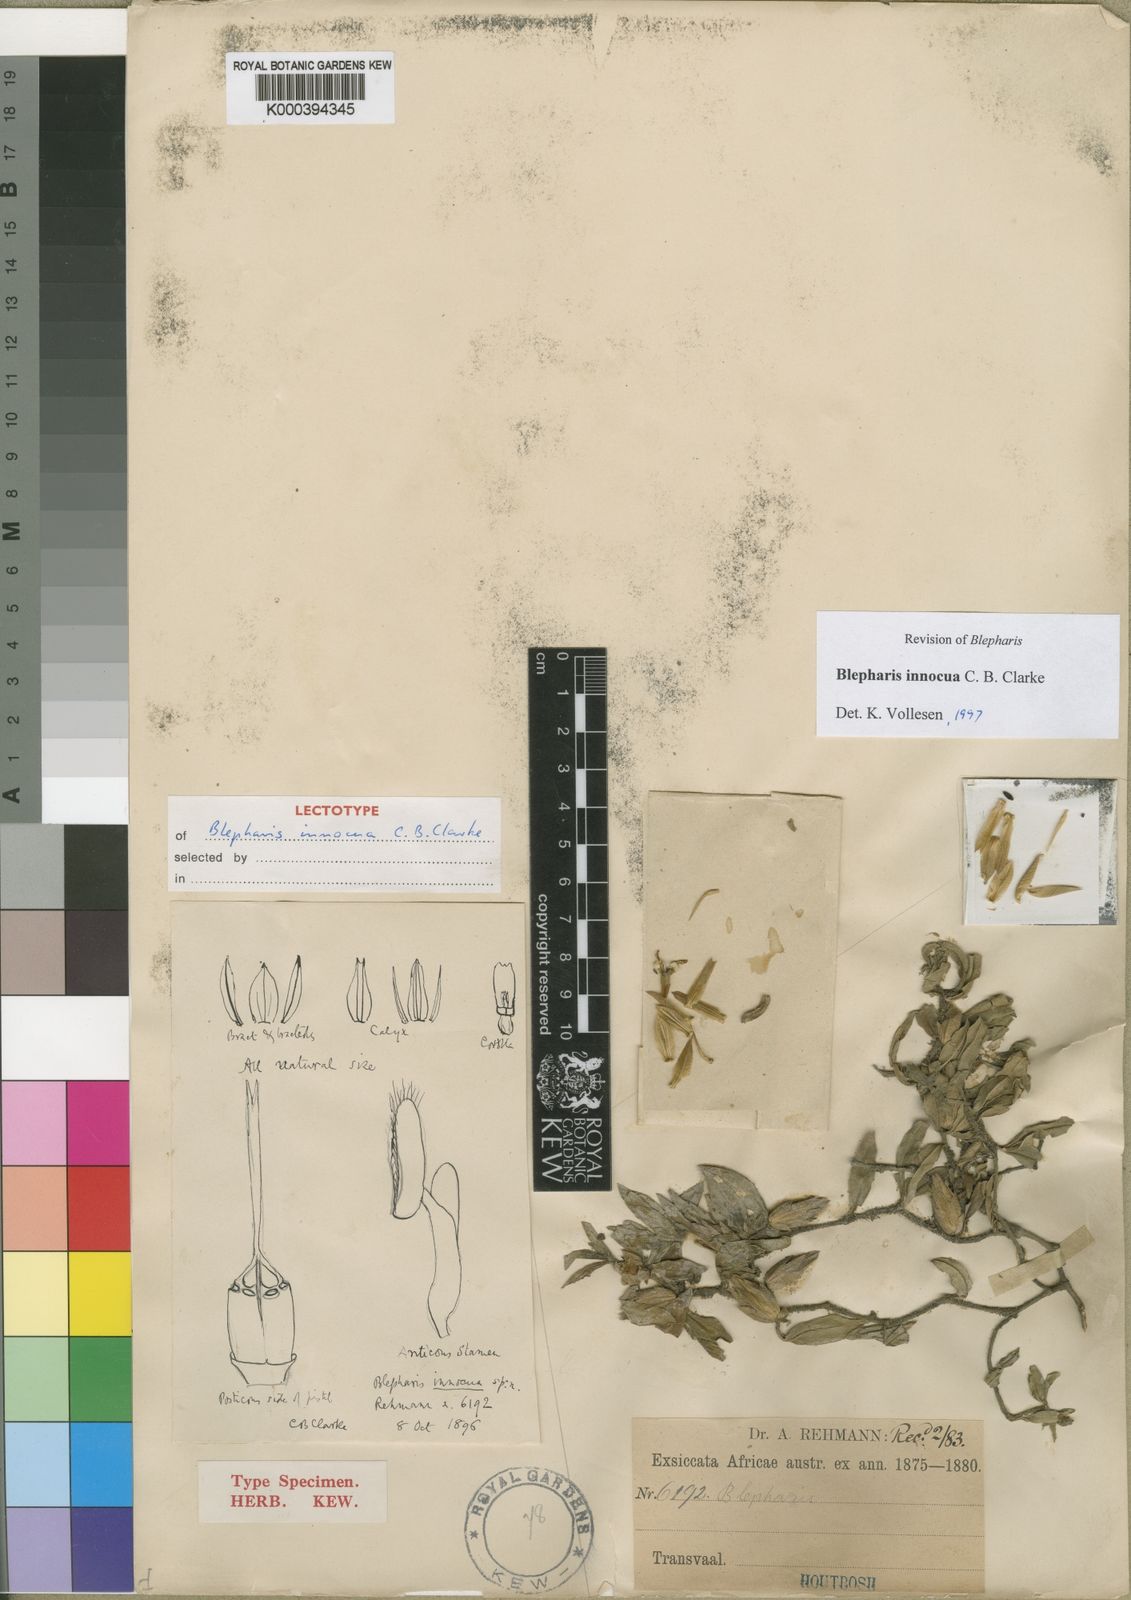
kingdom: Plantae
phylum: Tracheophyta
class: Magnoliopsida
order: Lamiales
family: Acanthaceae
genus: Blepharis
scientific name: Blepharis innocua
